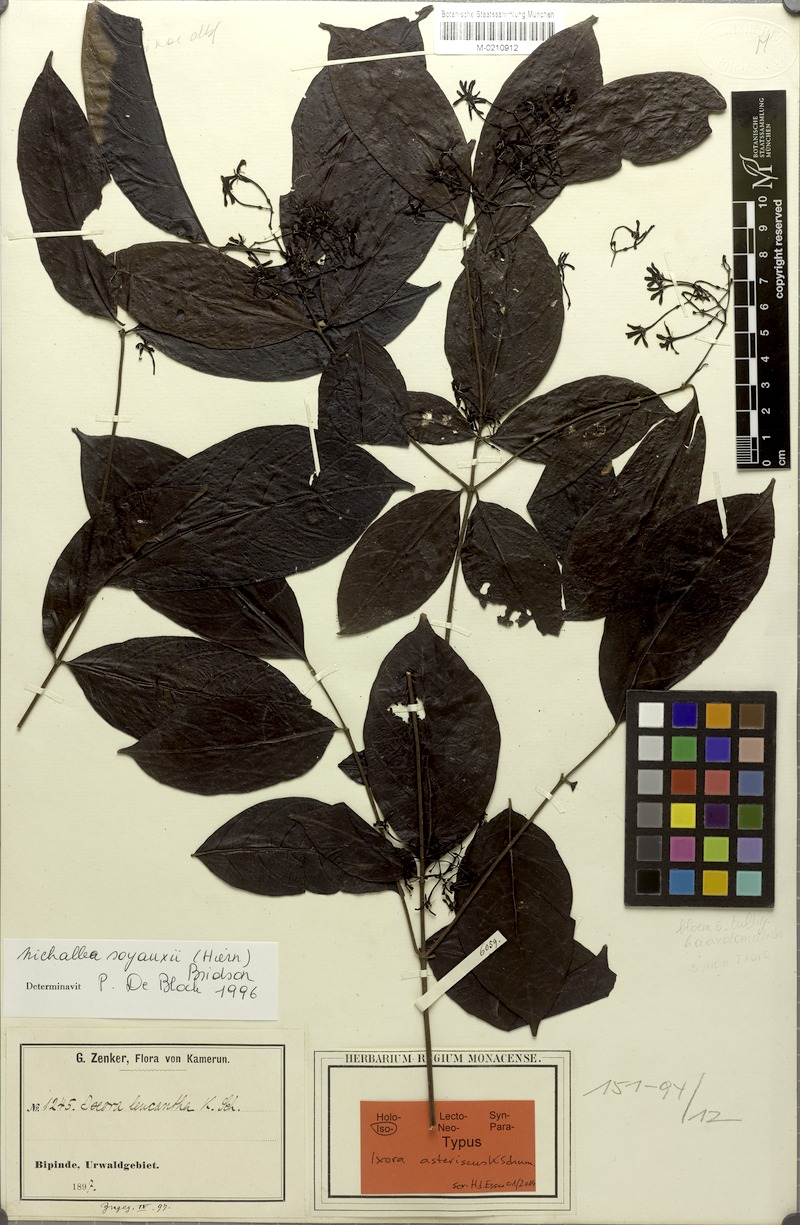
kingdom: Plantae
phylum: Tracheophyta
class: Magnoliopsida
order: Gentianales
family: Rubiaceae
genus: Nichallea
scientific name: Nichallea soyauxii
